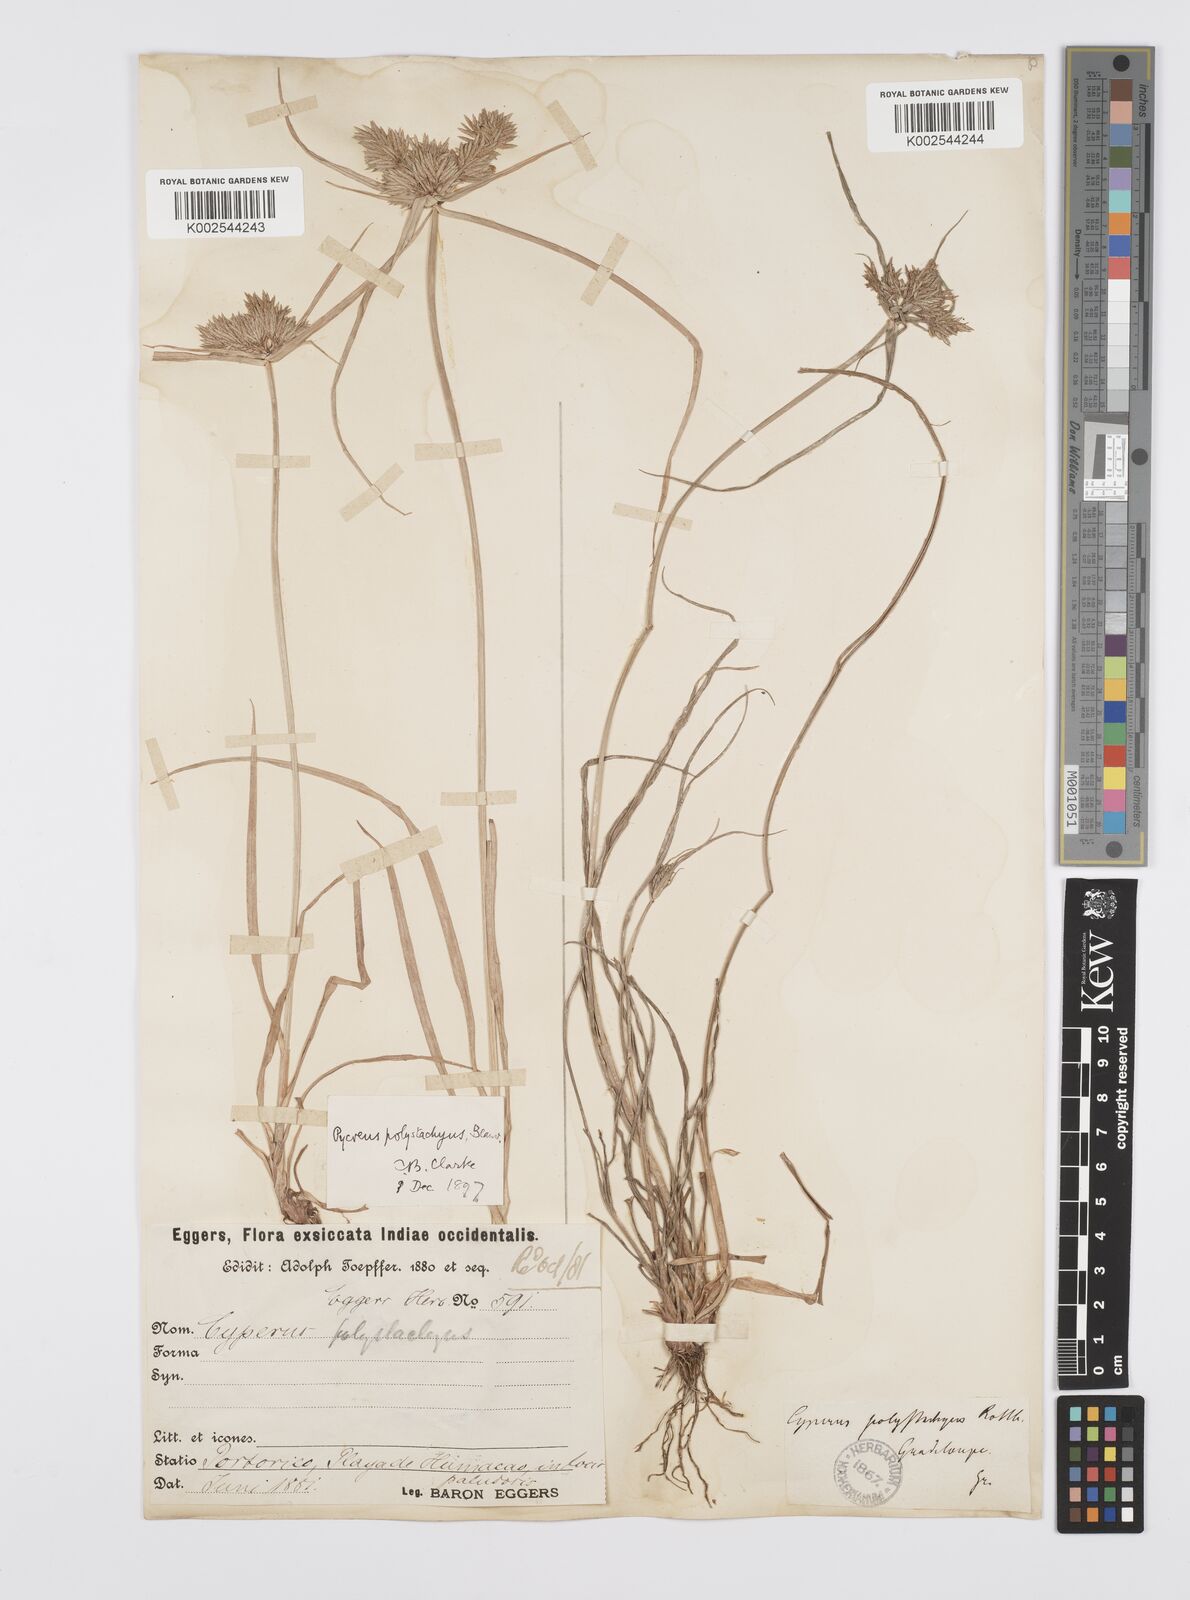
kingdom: Plantae
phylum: Tracheophyta
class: Liliopsida
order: Poales
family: Cyperaceae
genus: Cyperus
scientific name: Cyperus polystachyos
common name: Bunchy flat sedge
